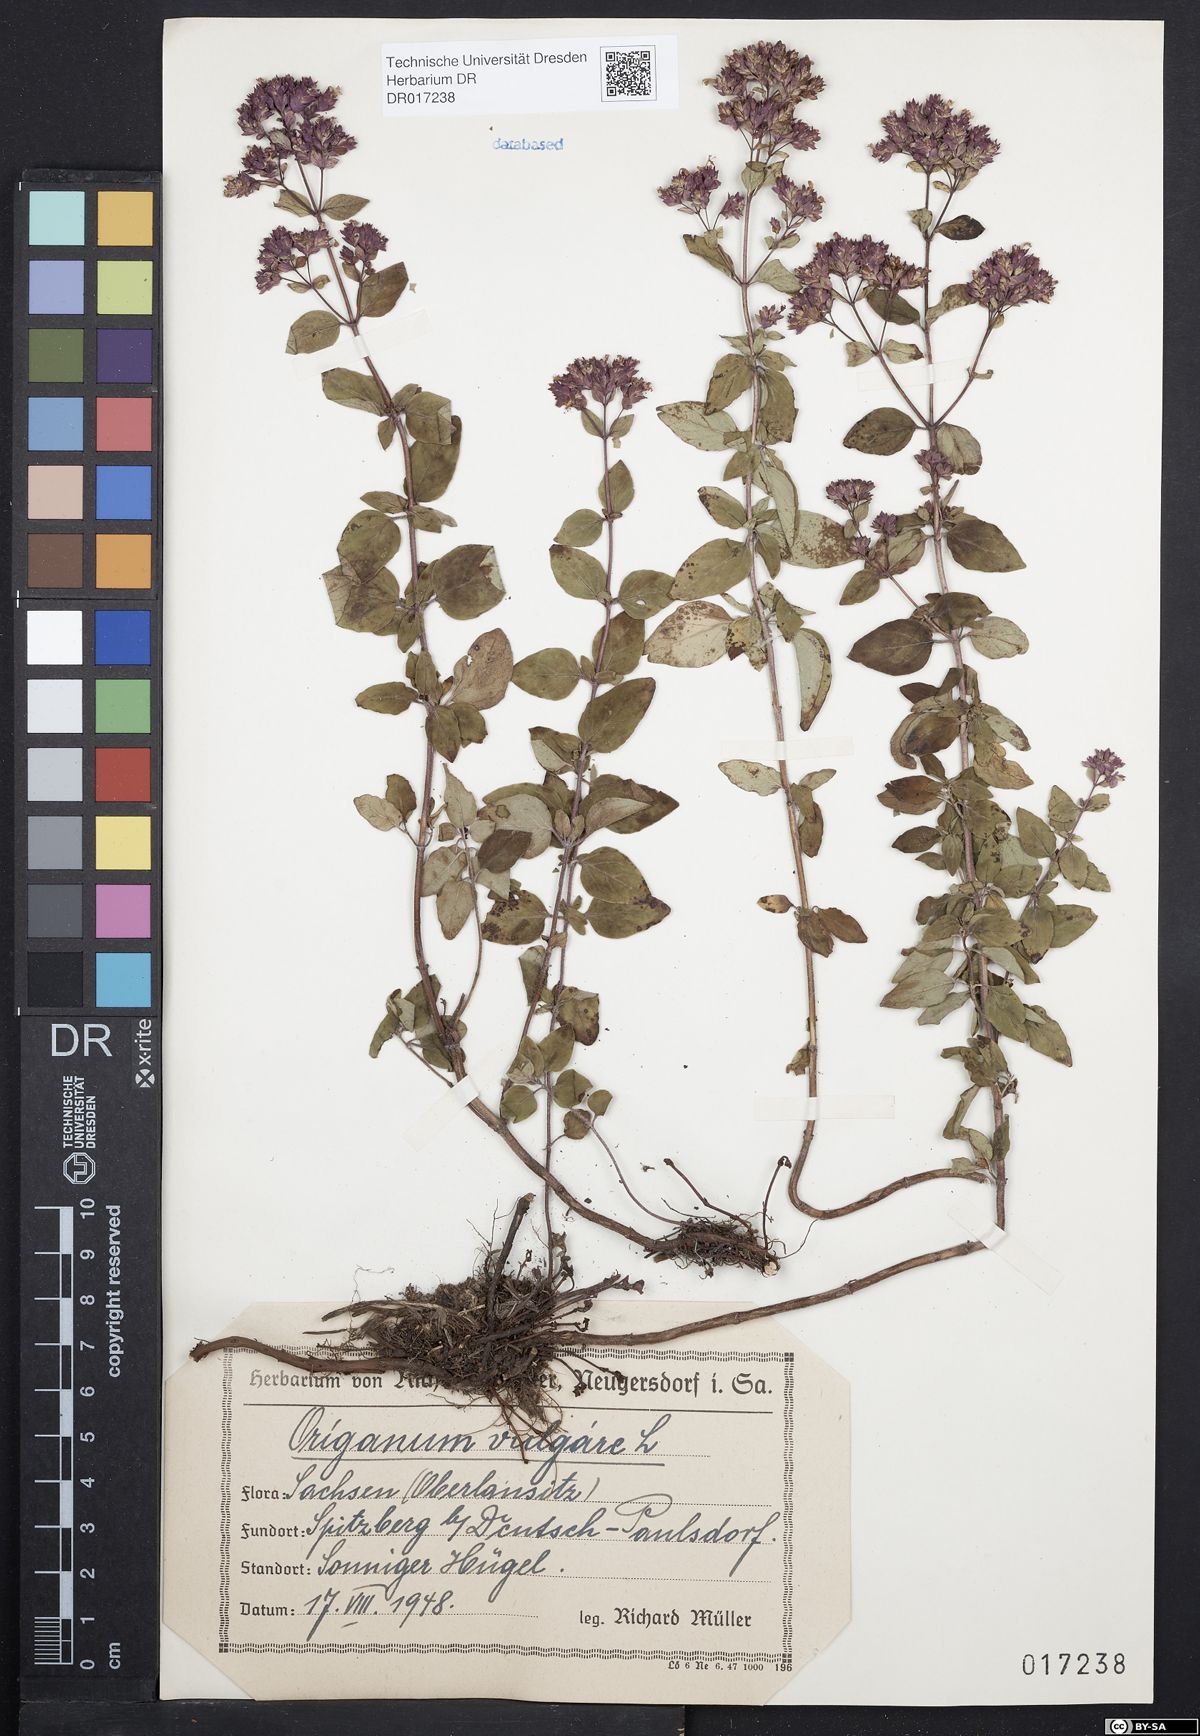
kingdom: Plantae
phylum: Tracheophyta
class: Magnoliopsida
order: Lamiales
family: Lamiaceae
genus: Origanum
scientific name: Origanum vulgare
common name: Wild marjoram
